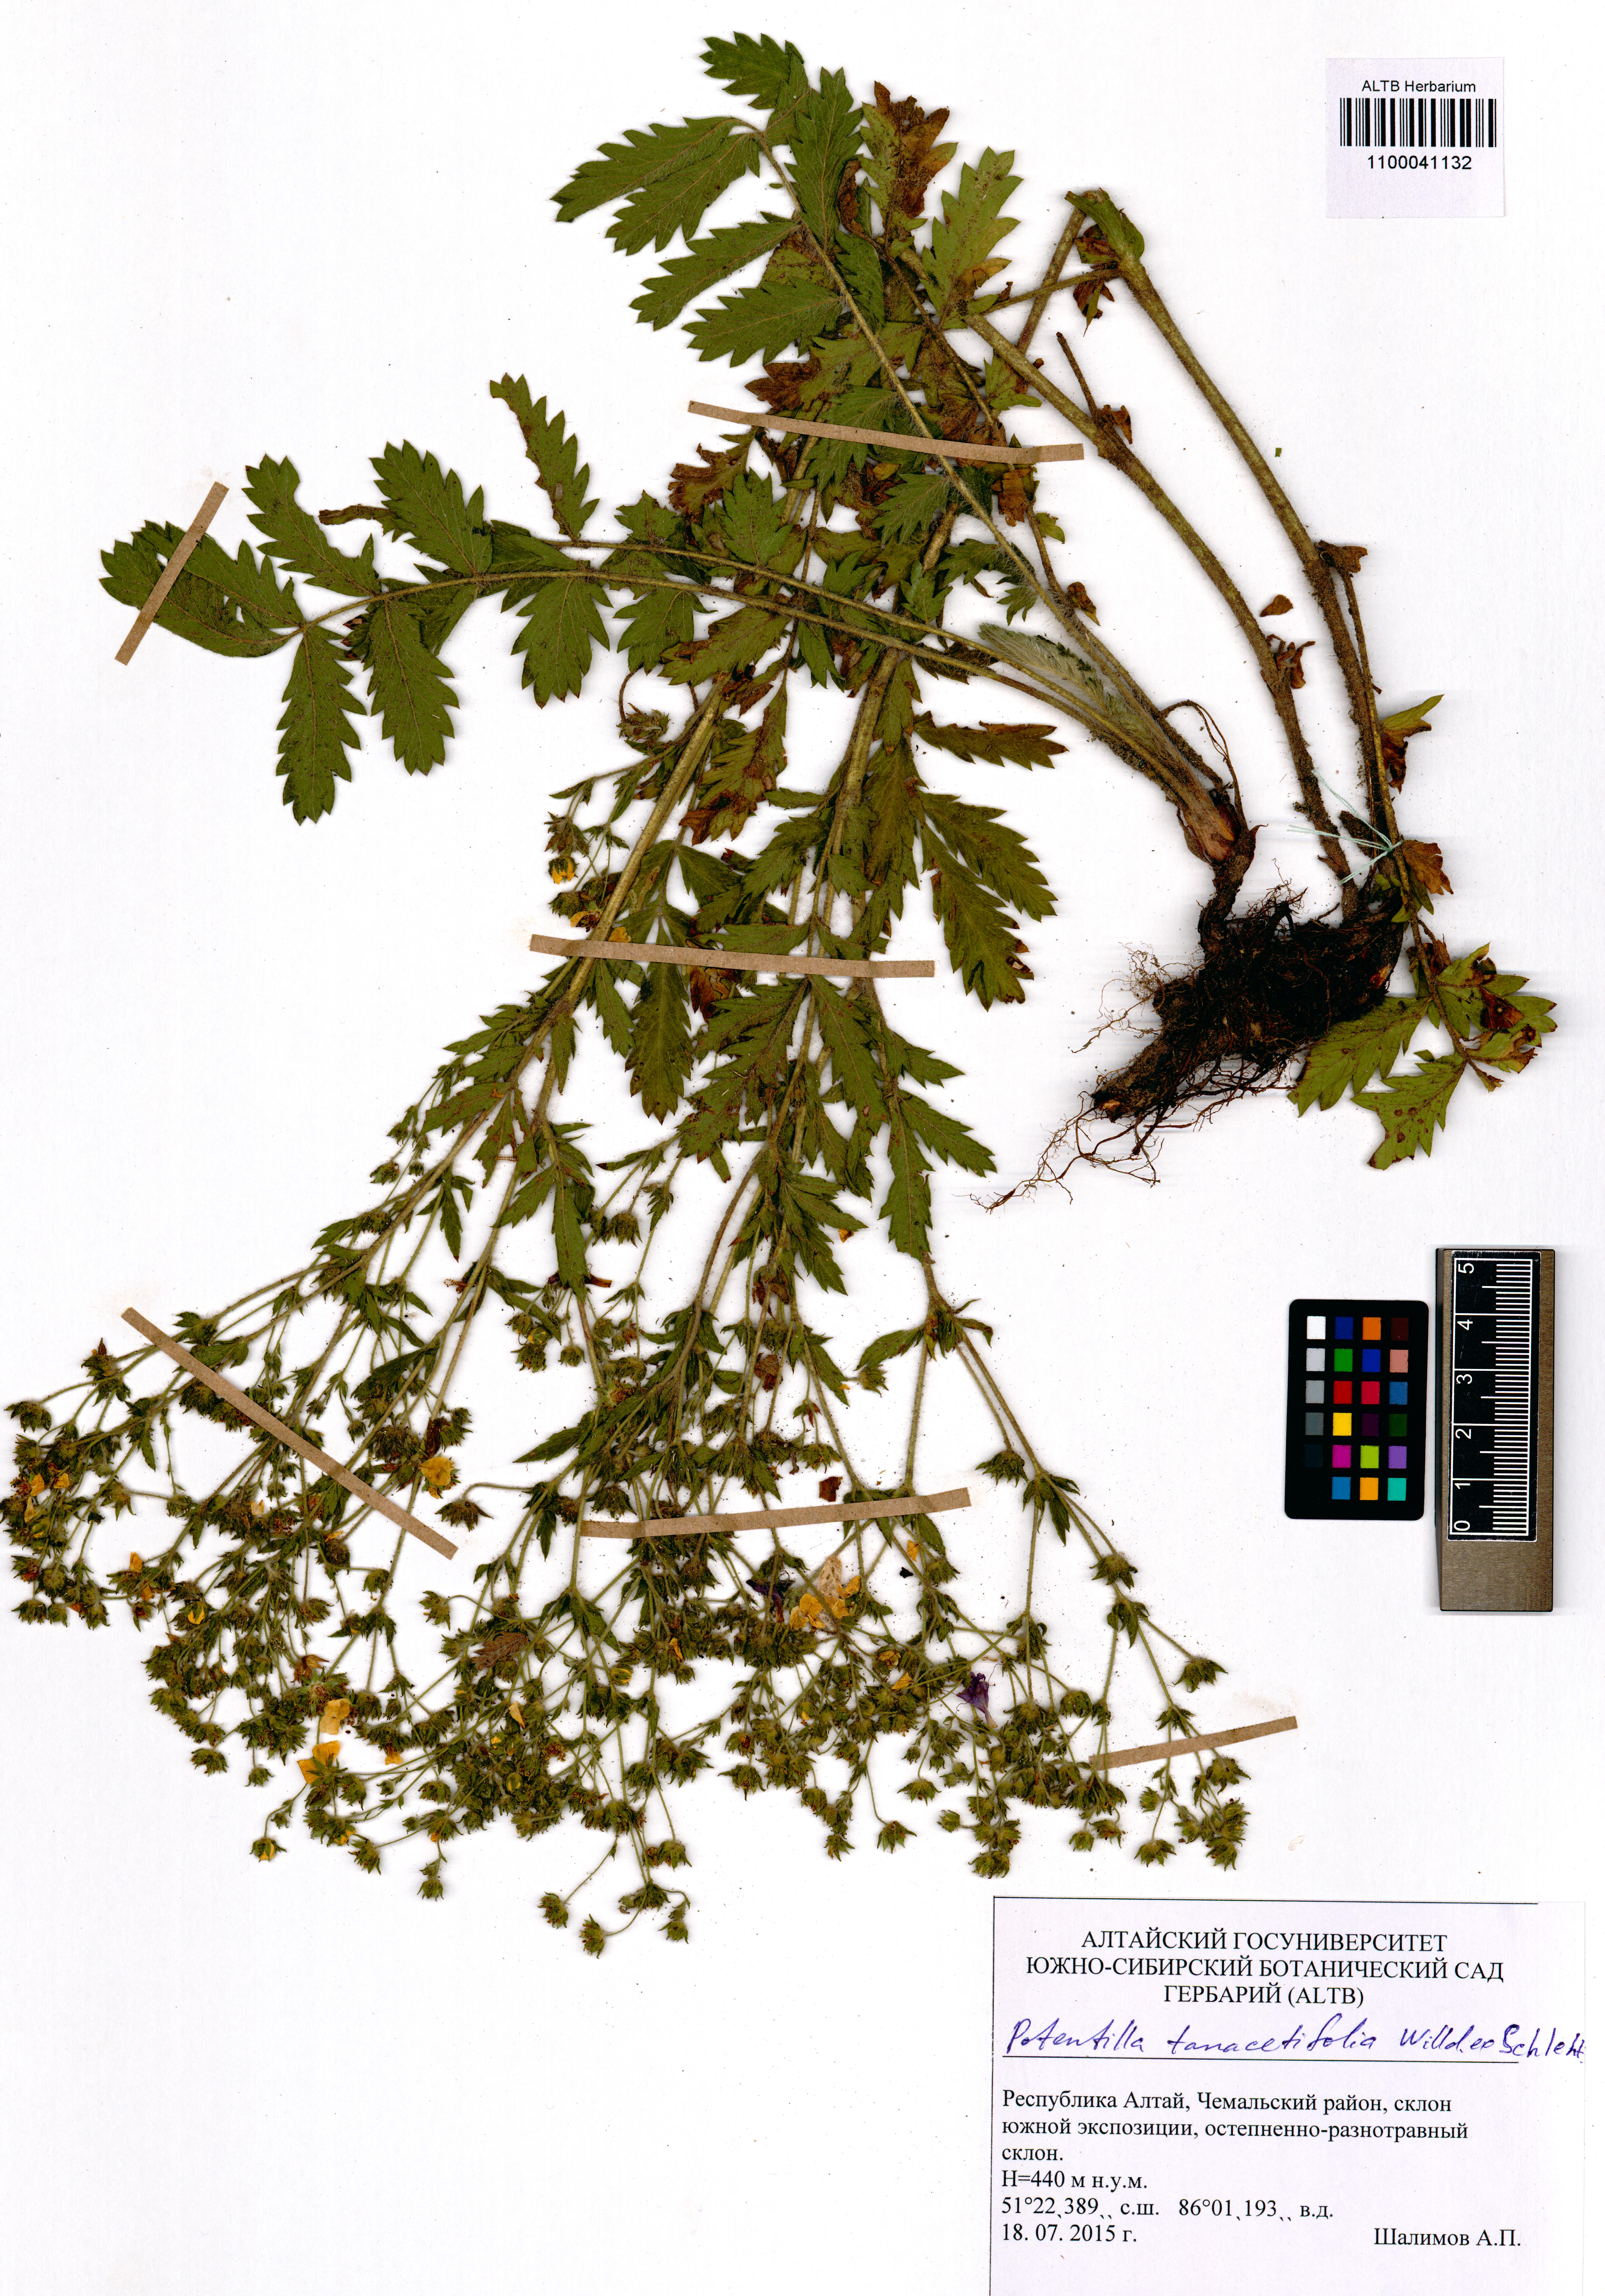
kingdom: Plantae
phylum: Tracheophyta
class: Magnoliopsida
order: Rosales
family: Rosaceae
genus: Potentilla
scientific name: Potentilla tanacetifolia
